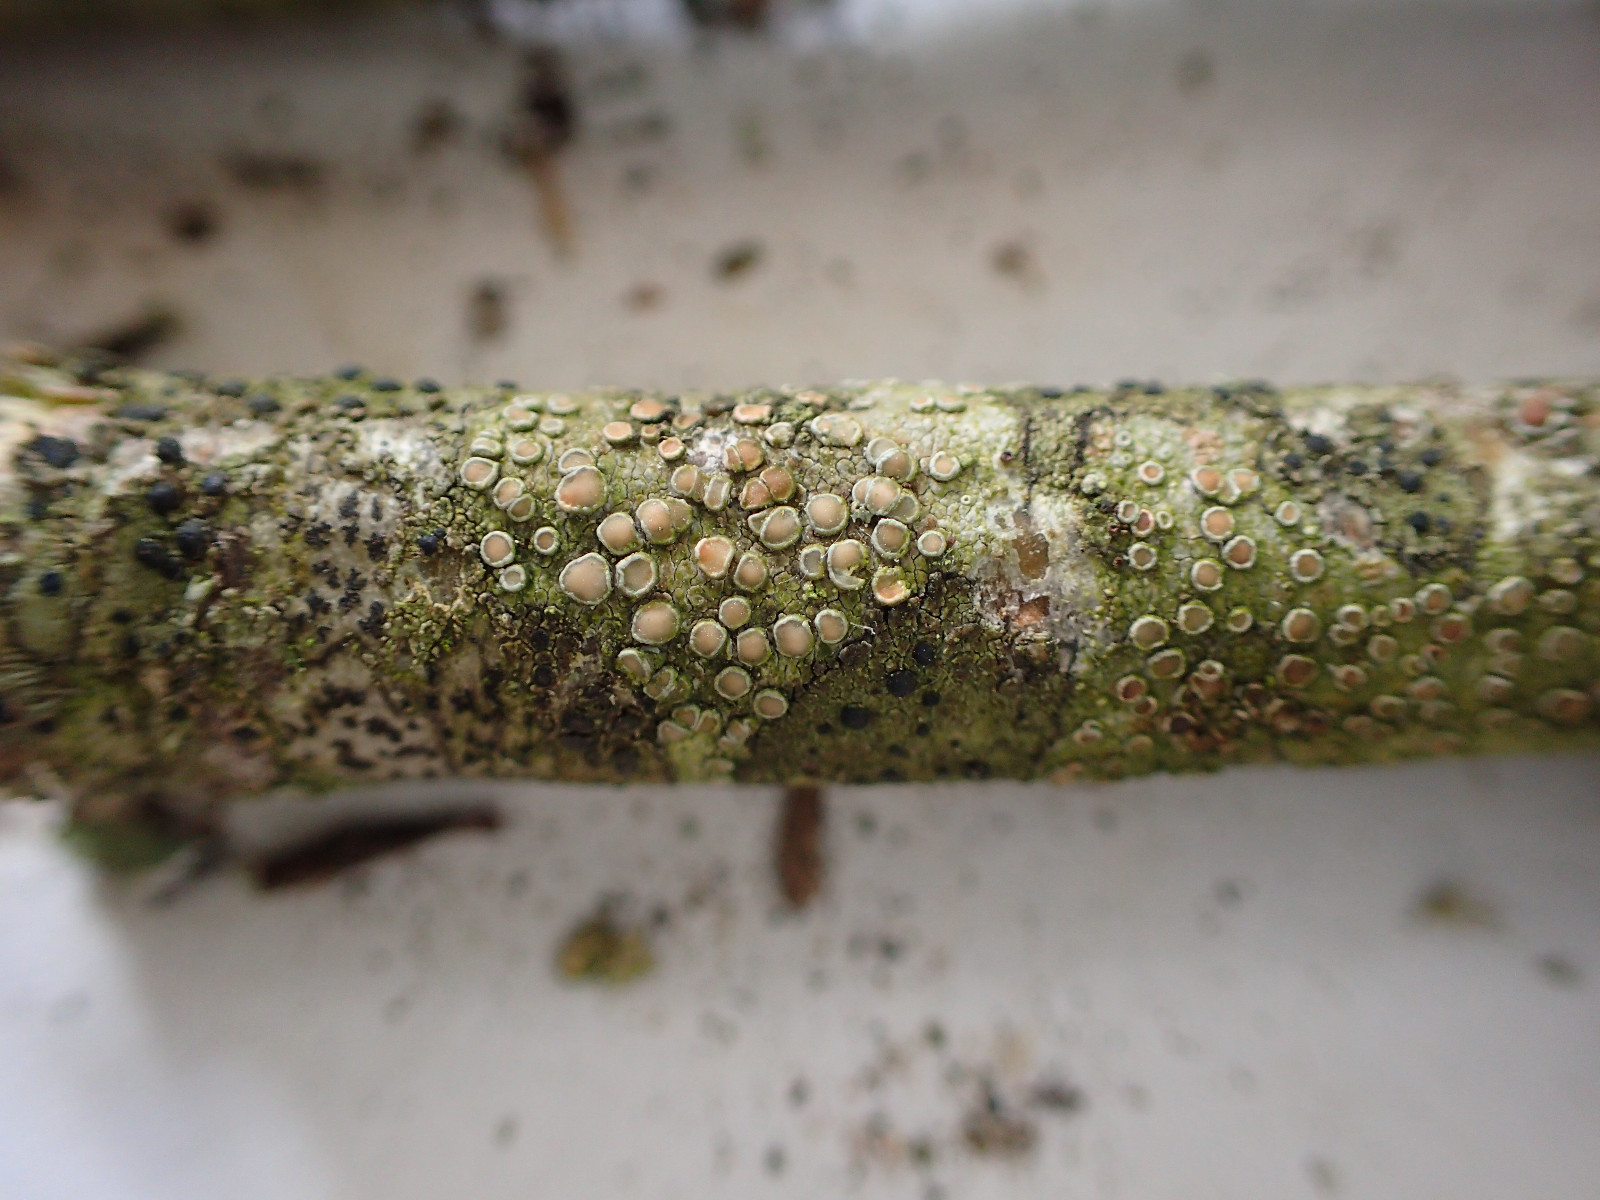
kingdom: Fungi
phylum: Ascomycota
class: Lecanoromycetes
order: Lecanorales
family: Lecanoraceae
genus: Lecanora
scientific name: Lecanora chlarotera
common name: brun kantskivelav
